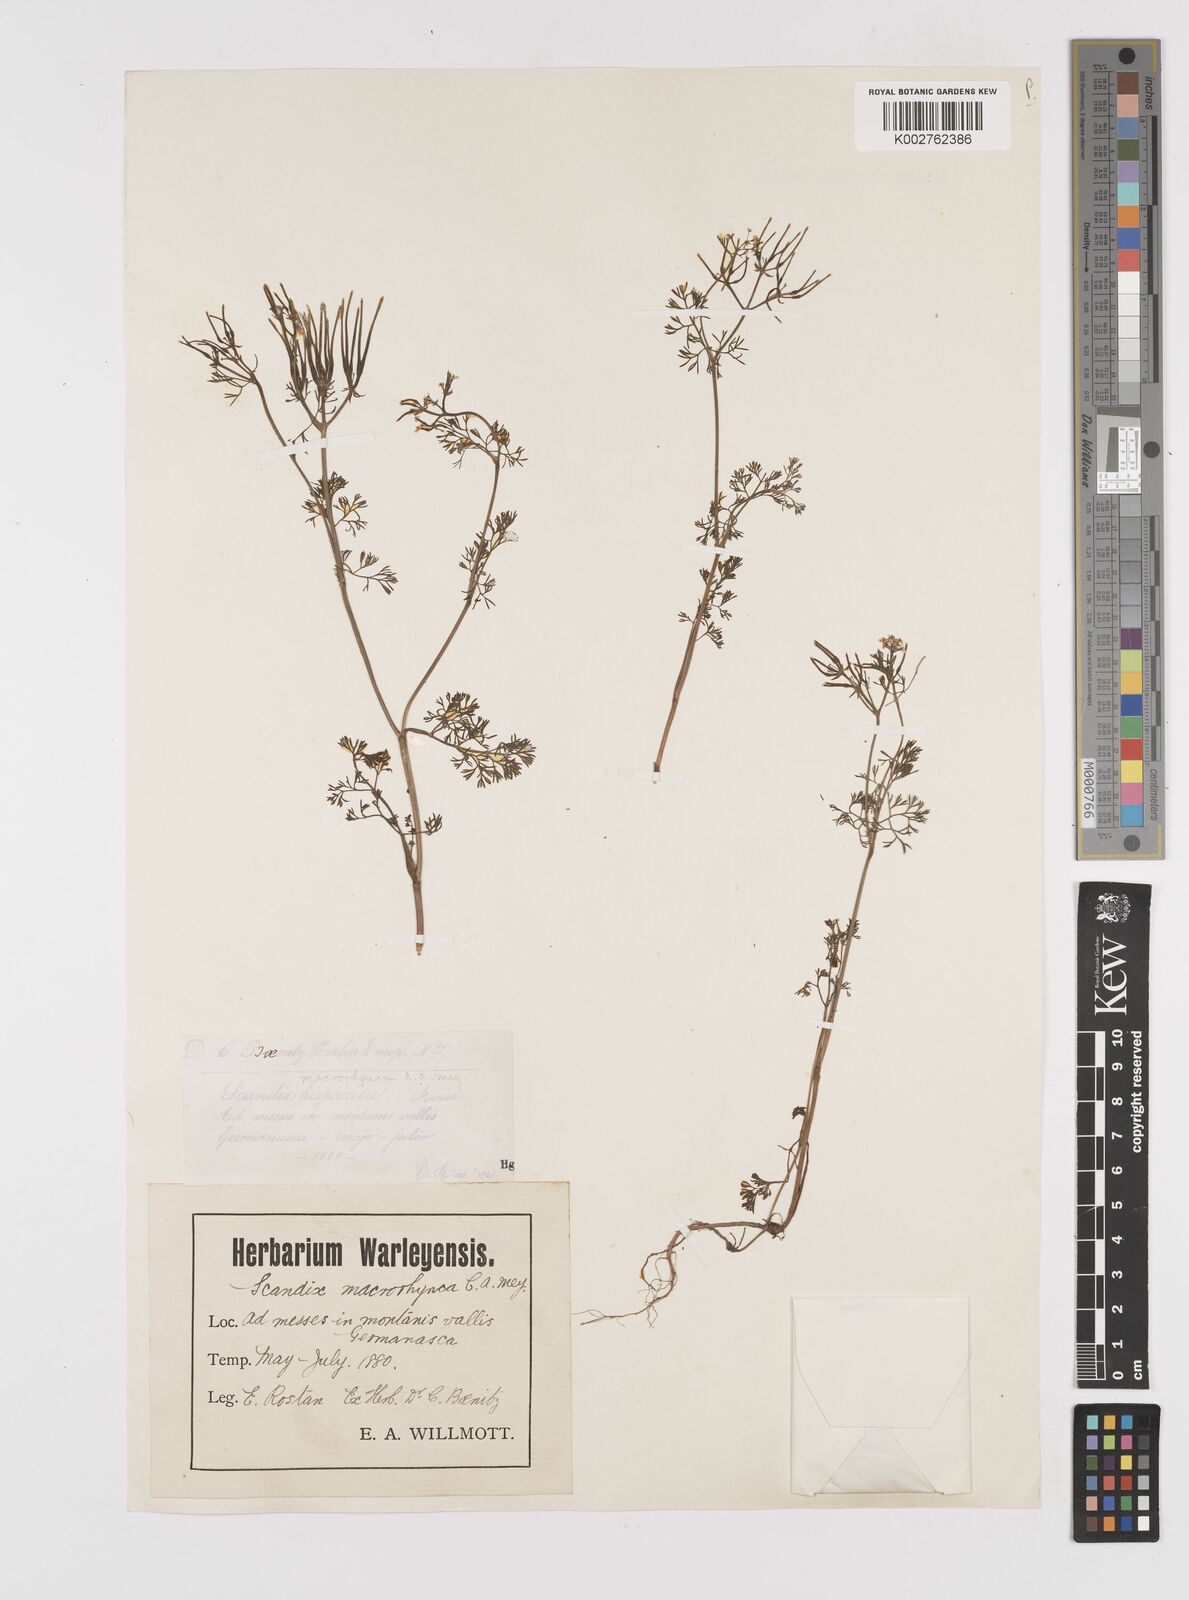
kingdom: Plantae
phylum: Tracheophyta
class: Magnoliopsida
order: Apiales
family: Apiaceae
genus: Scandix
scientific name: Scandix pecten-veneris
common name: Shepherd's-needle
